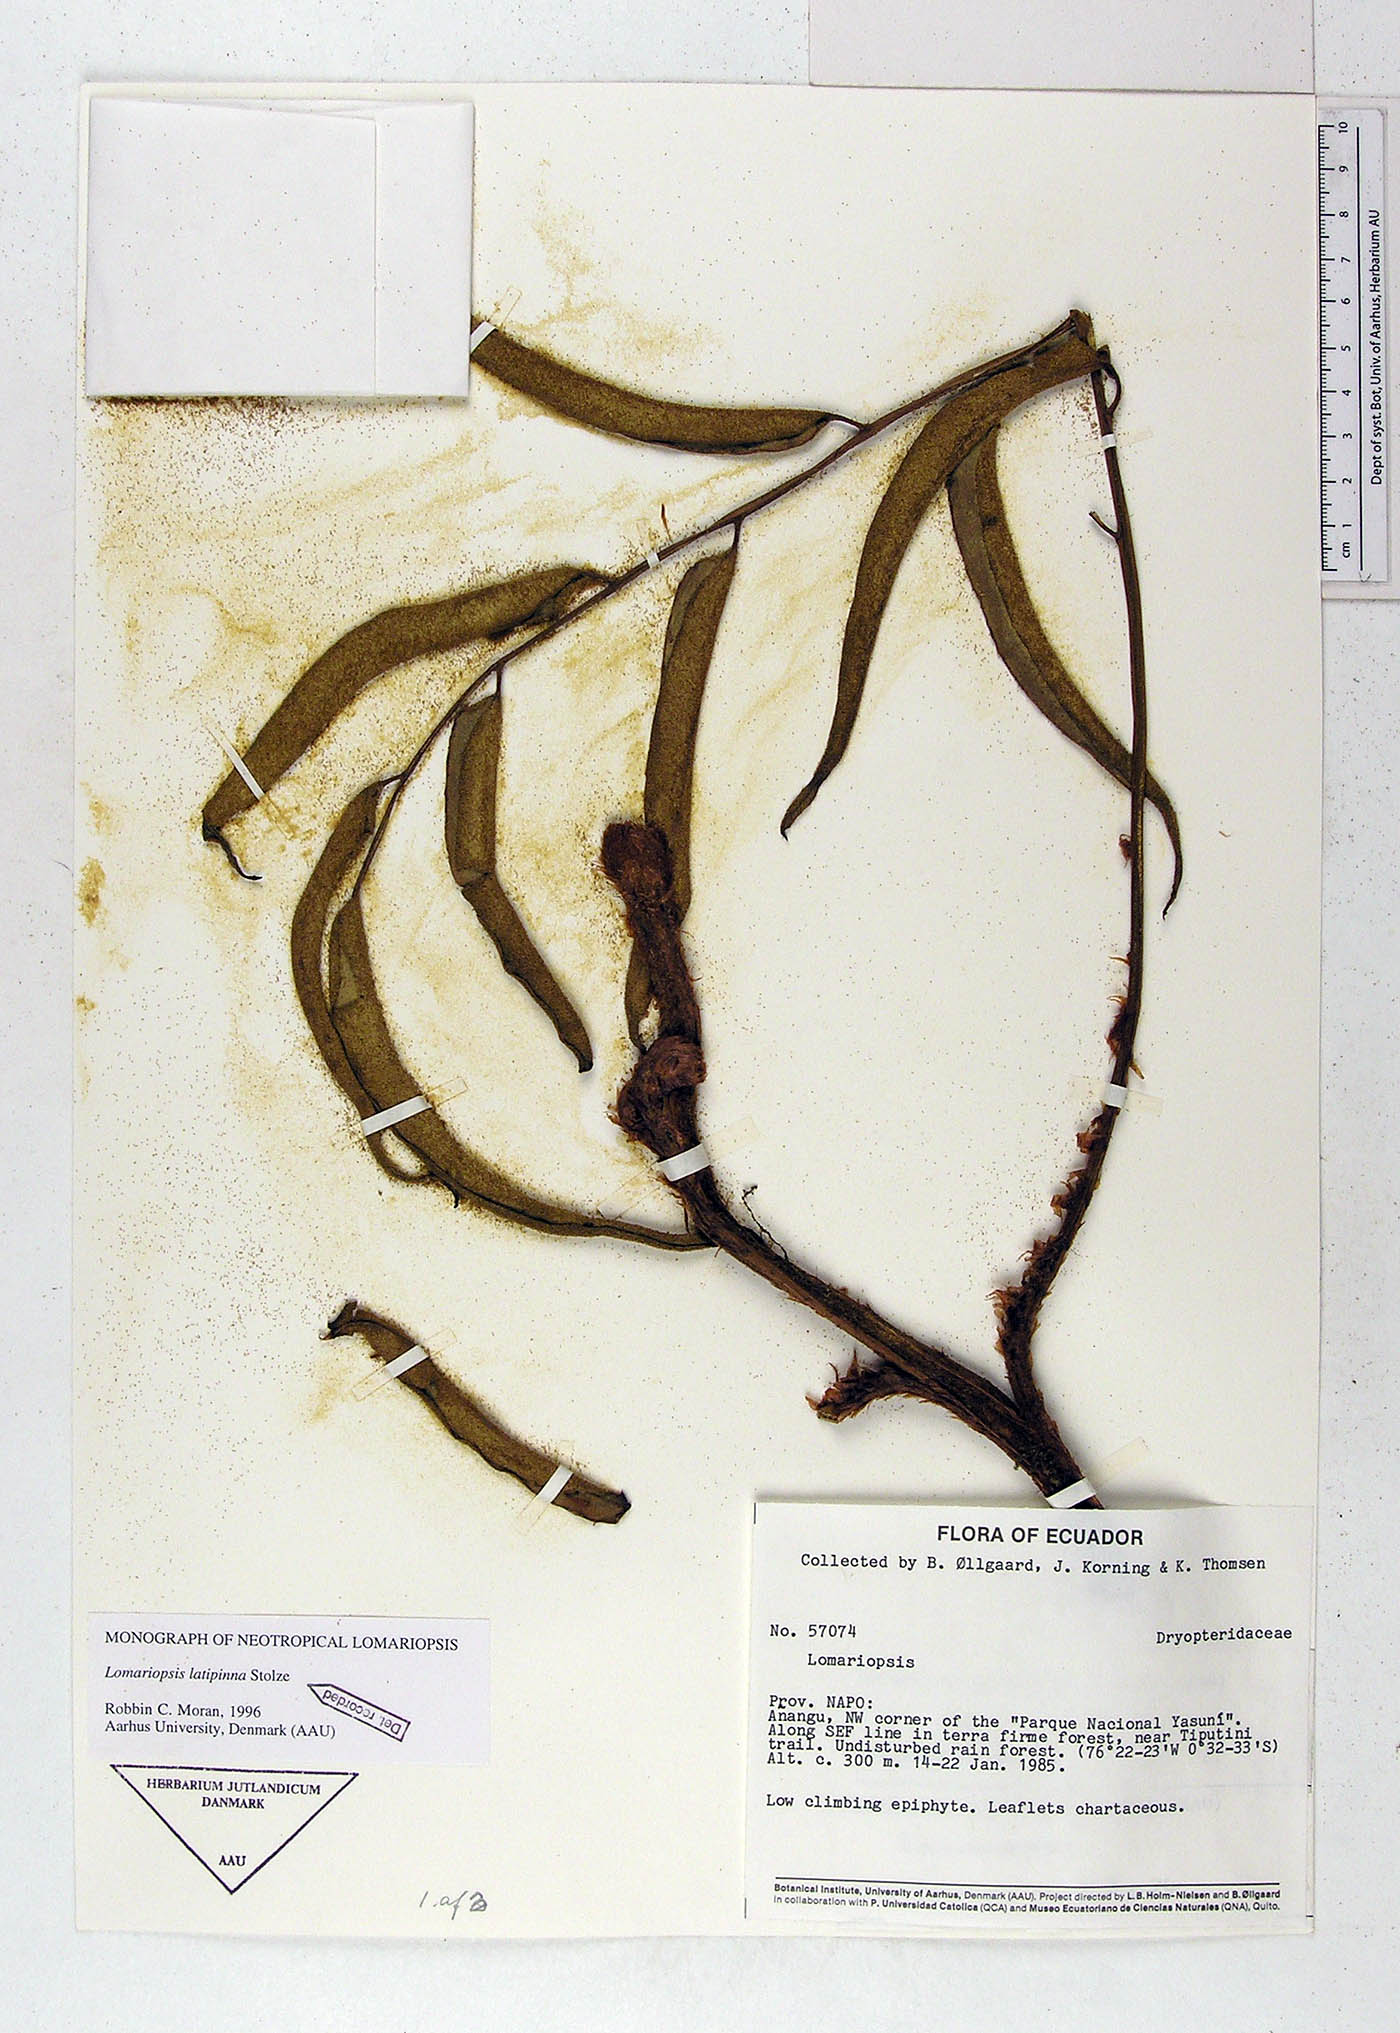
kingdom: Plantae
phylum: Tracheophyta
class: Polypodiopsida
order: Polypodiales
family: Lomariopsidaceae
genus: Lomariopsis
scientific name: Lomariopsis latipinna
